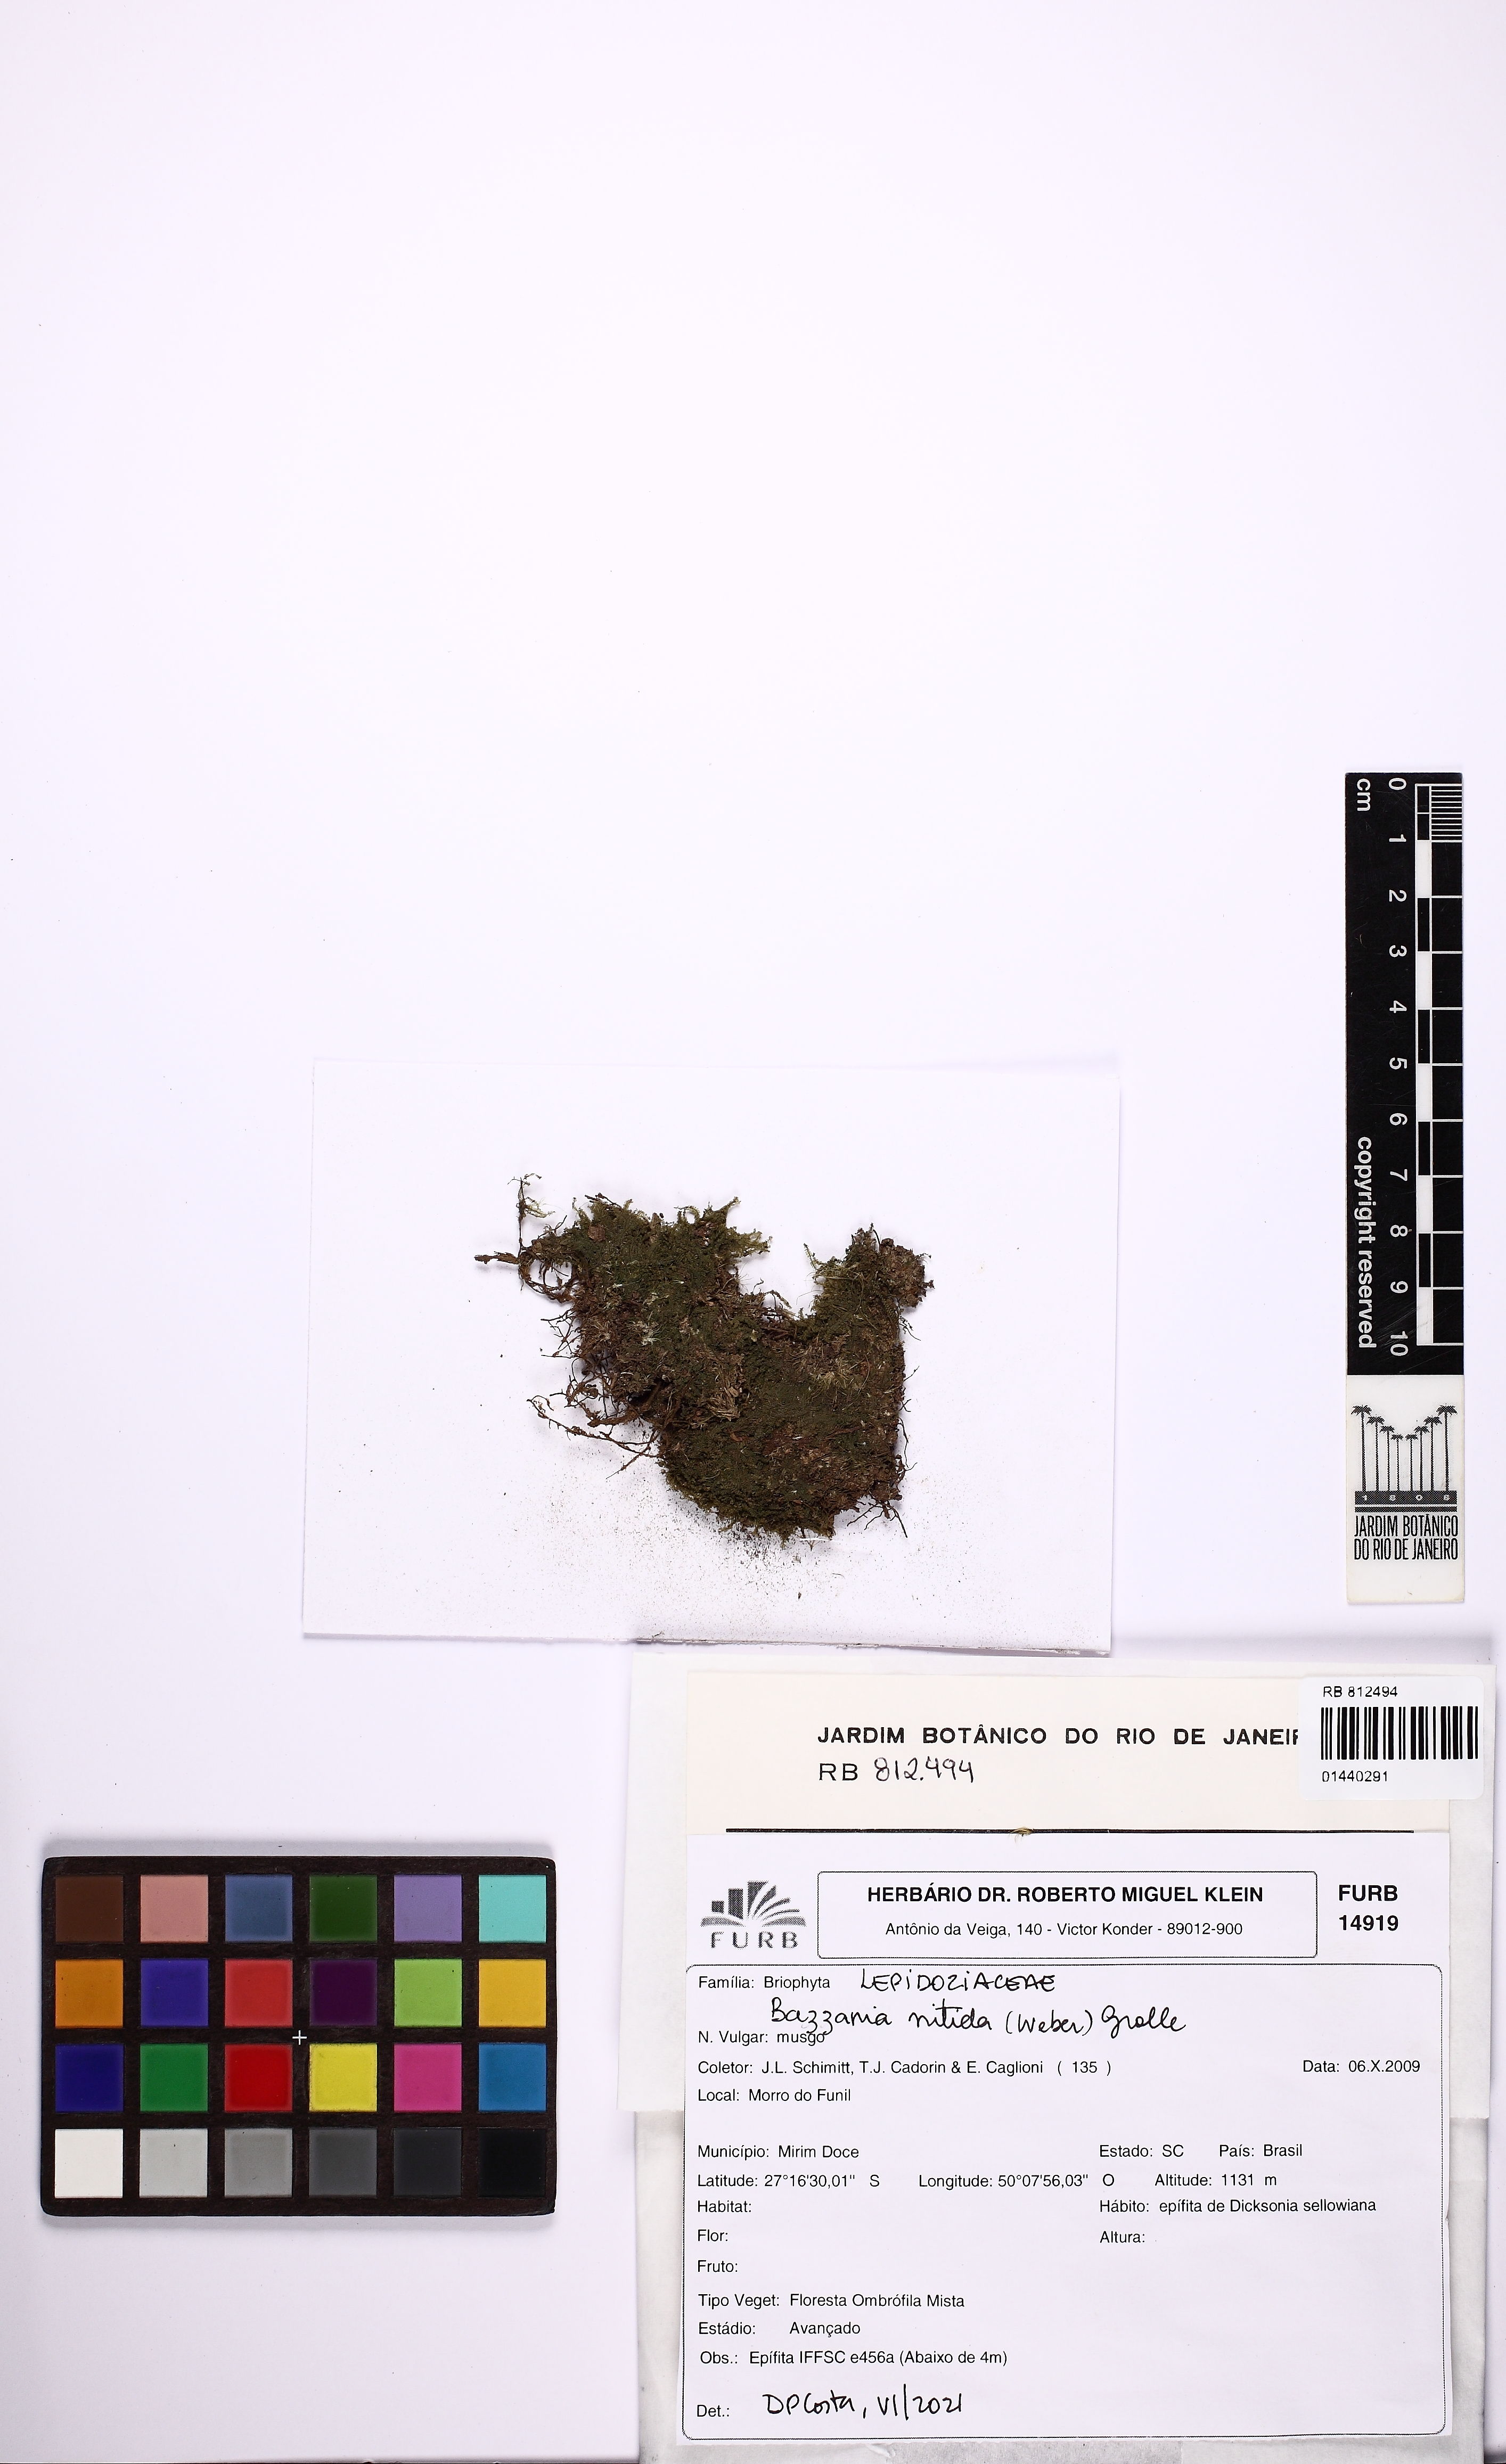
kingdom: Plantae
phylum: Marchantiophyta
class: Jungermanniopsida
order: Jungermanniales
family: Lepidoziaceae
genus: Bazzania
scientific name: Bazzania nitida
